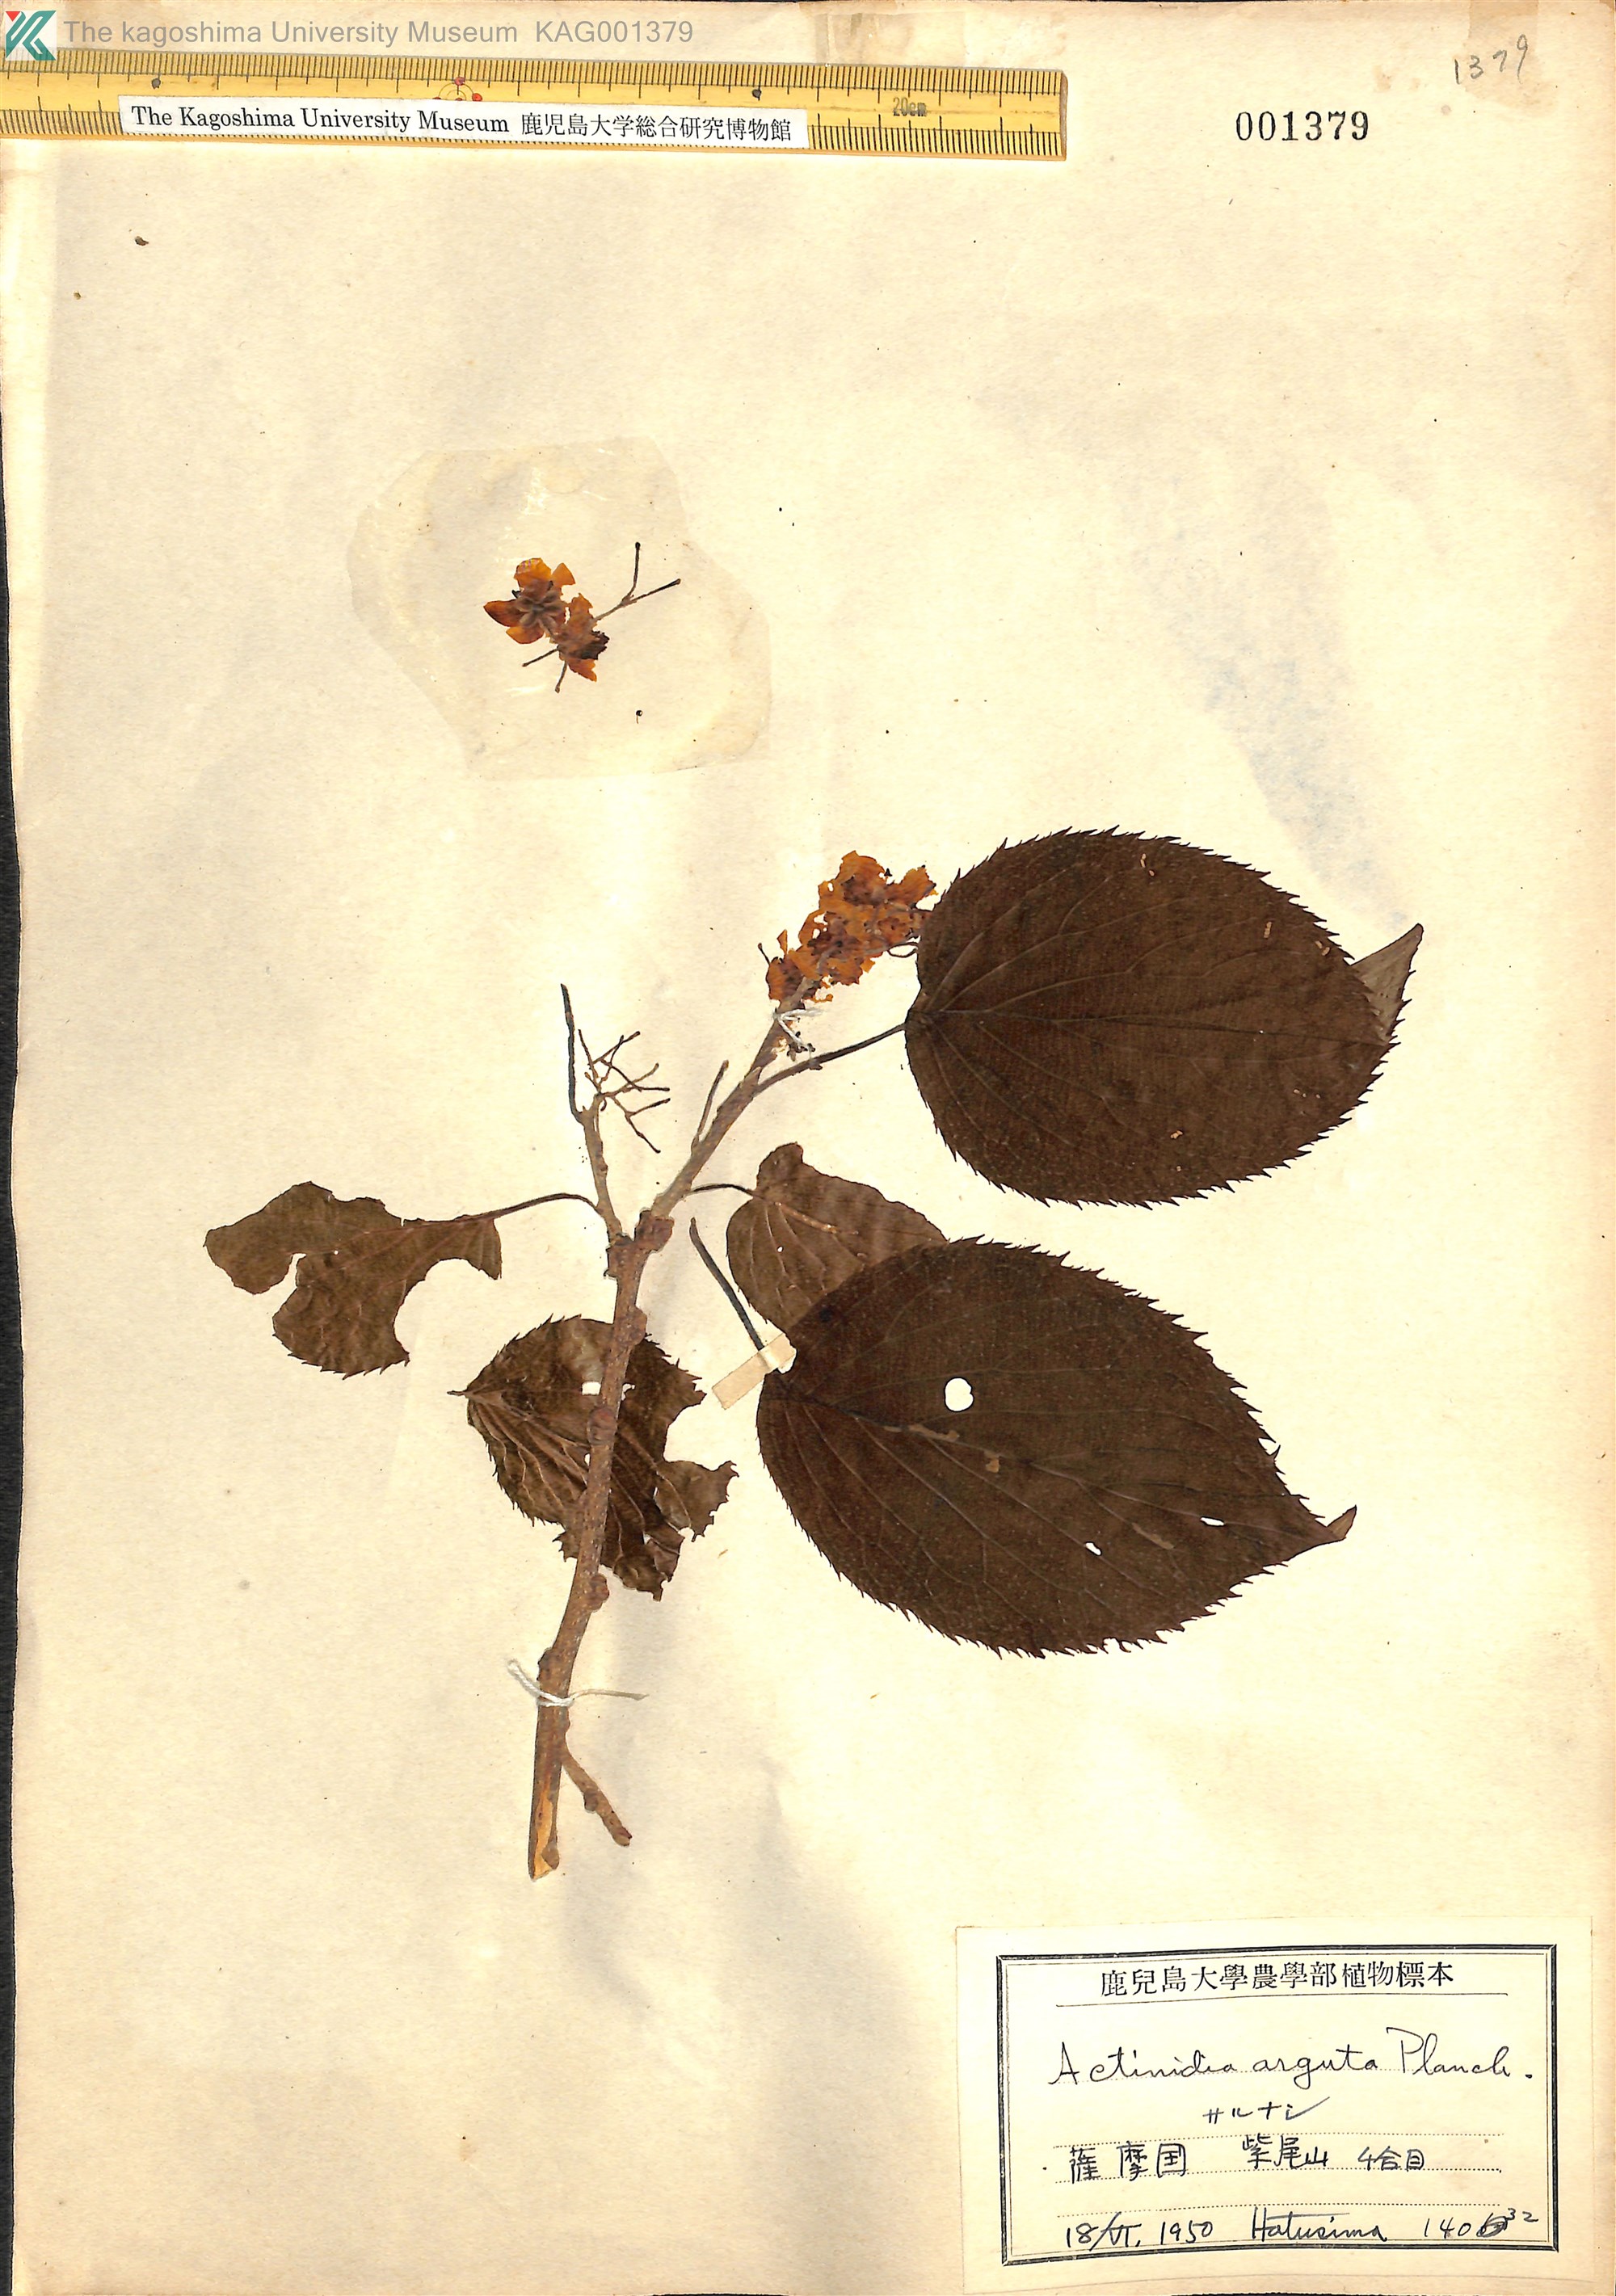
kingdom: Plantae
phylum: Tracheophyta
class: Magnoliopsida
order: Ericales
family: Actinidiaceae
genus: Actinidia
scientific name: Actinidia arguta
